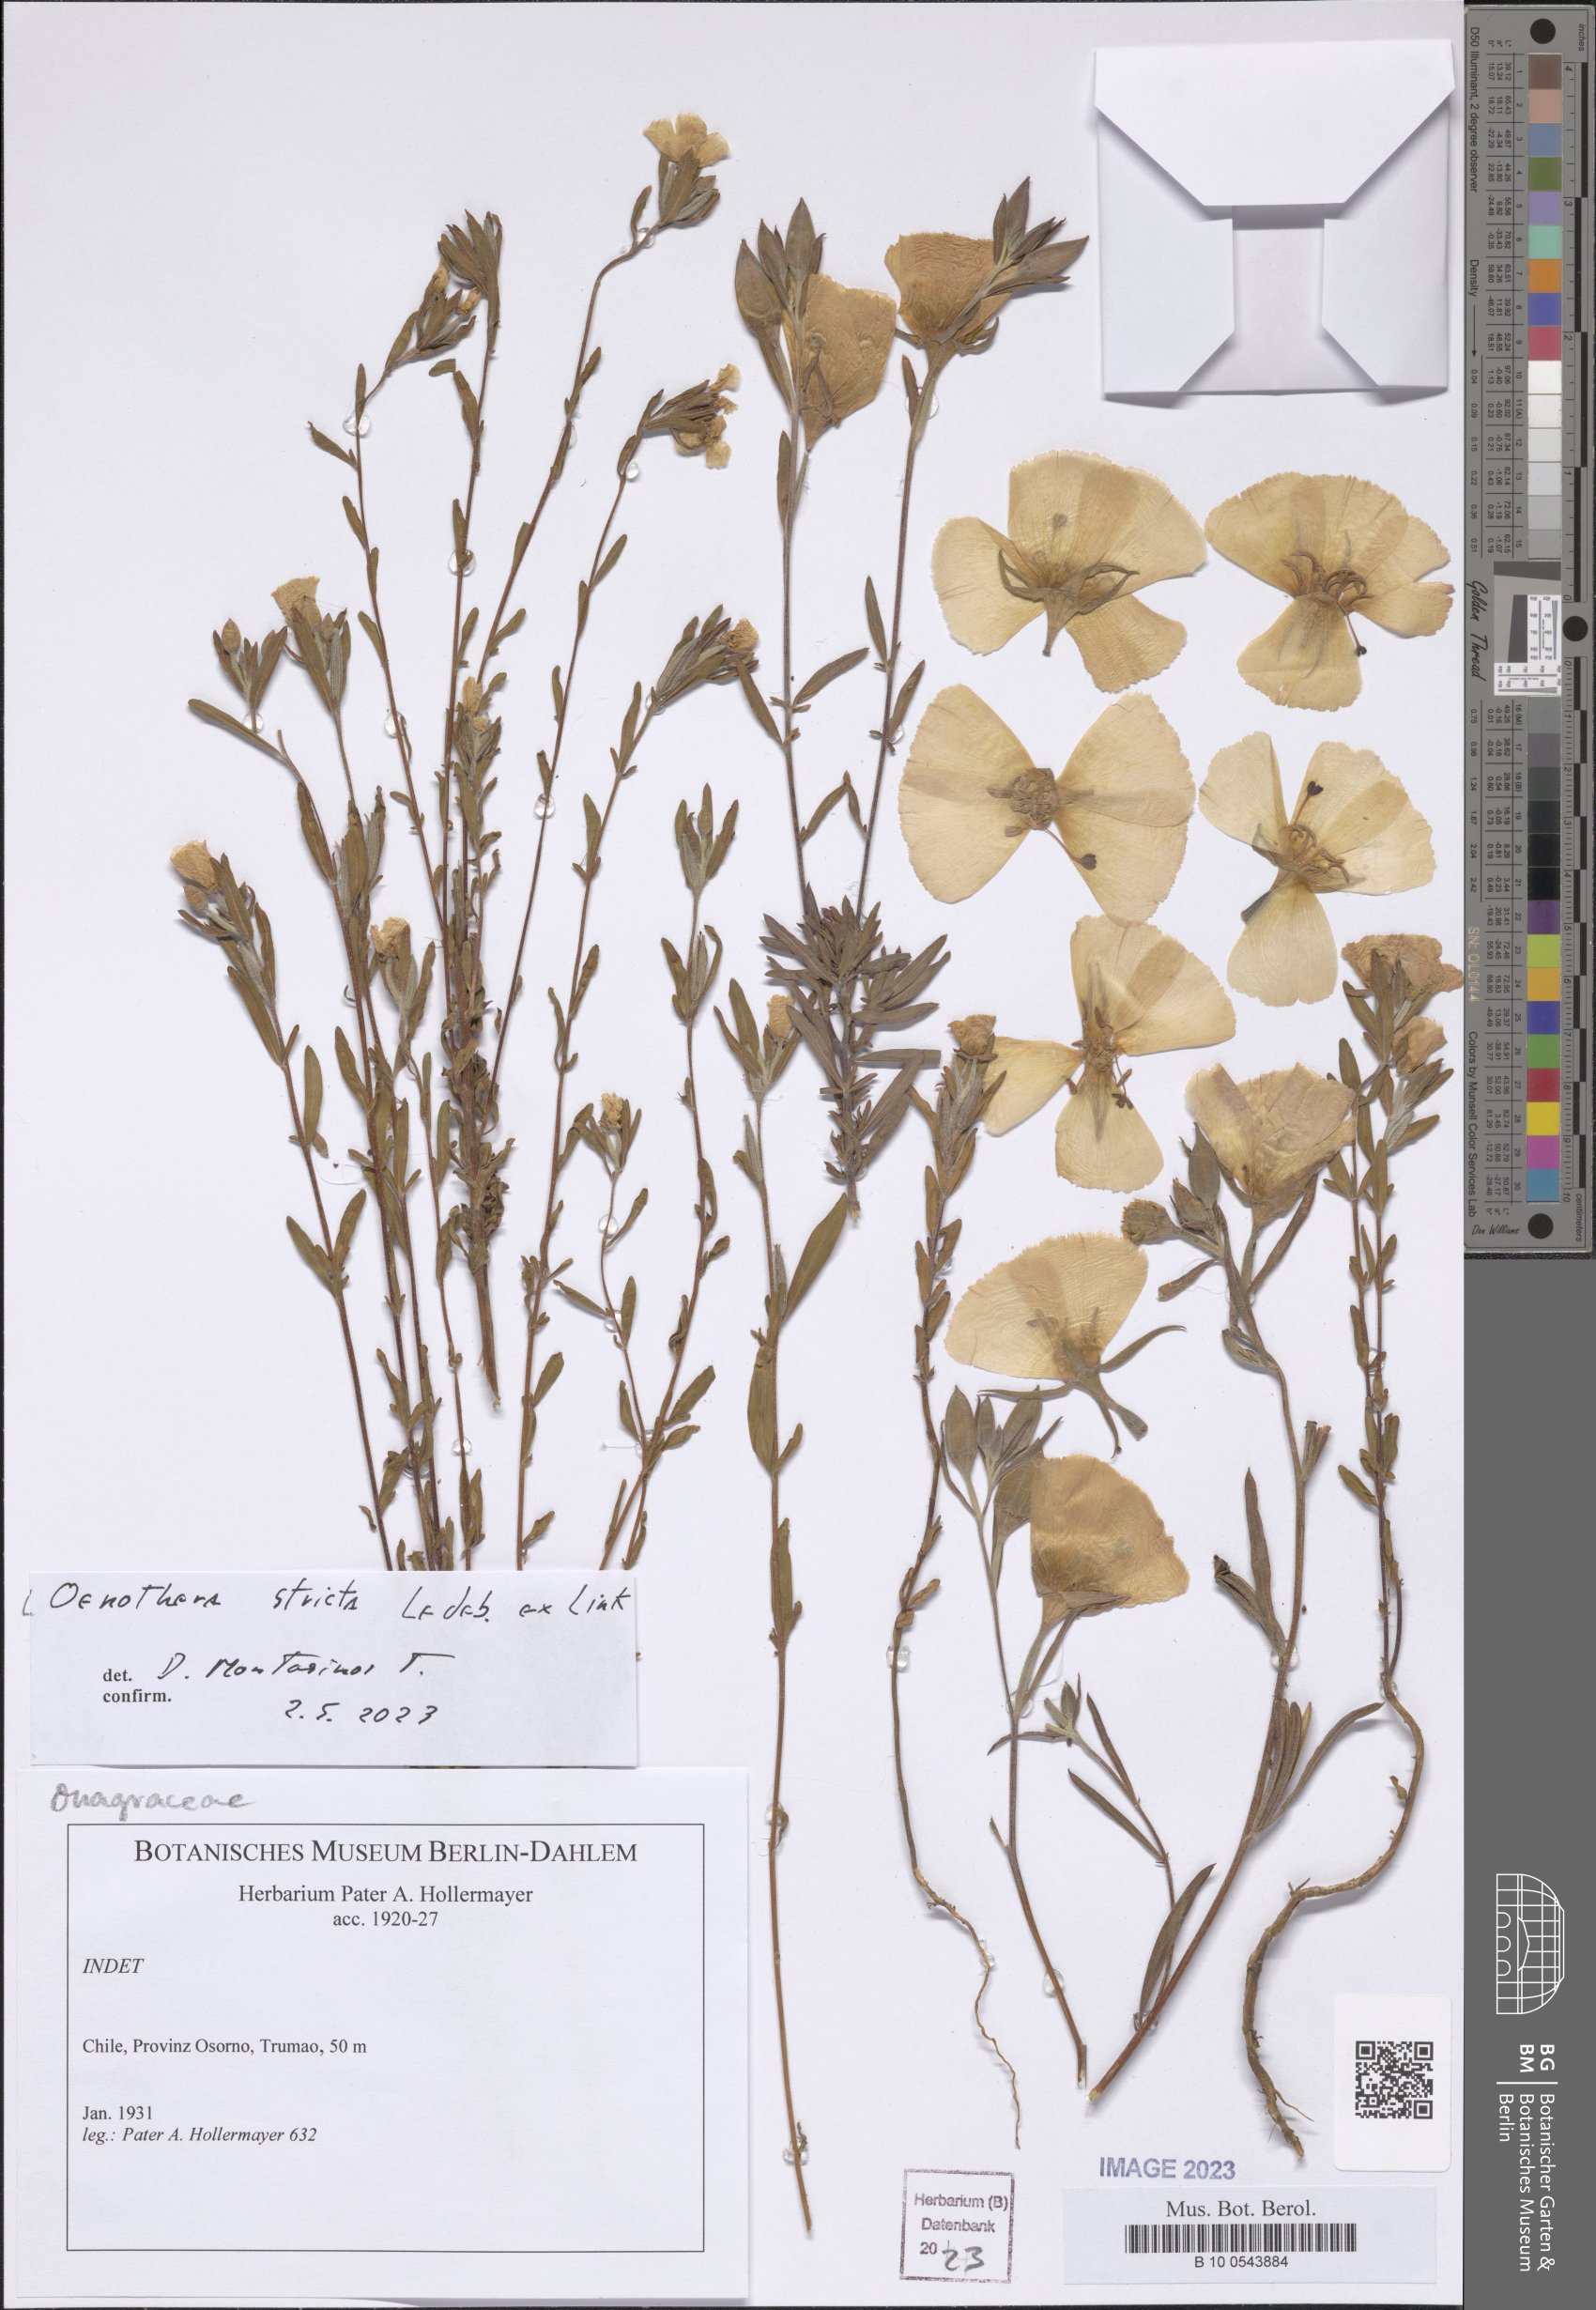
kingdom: Plantae
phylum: Tracheophyta
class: Magnoliopsida
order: Myrtales
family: Onagraceae
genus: Oenothera
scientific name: Oenothera stricta
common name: Fragrant evening-primrose
